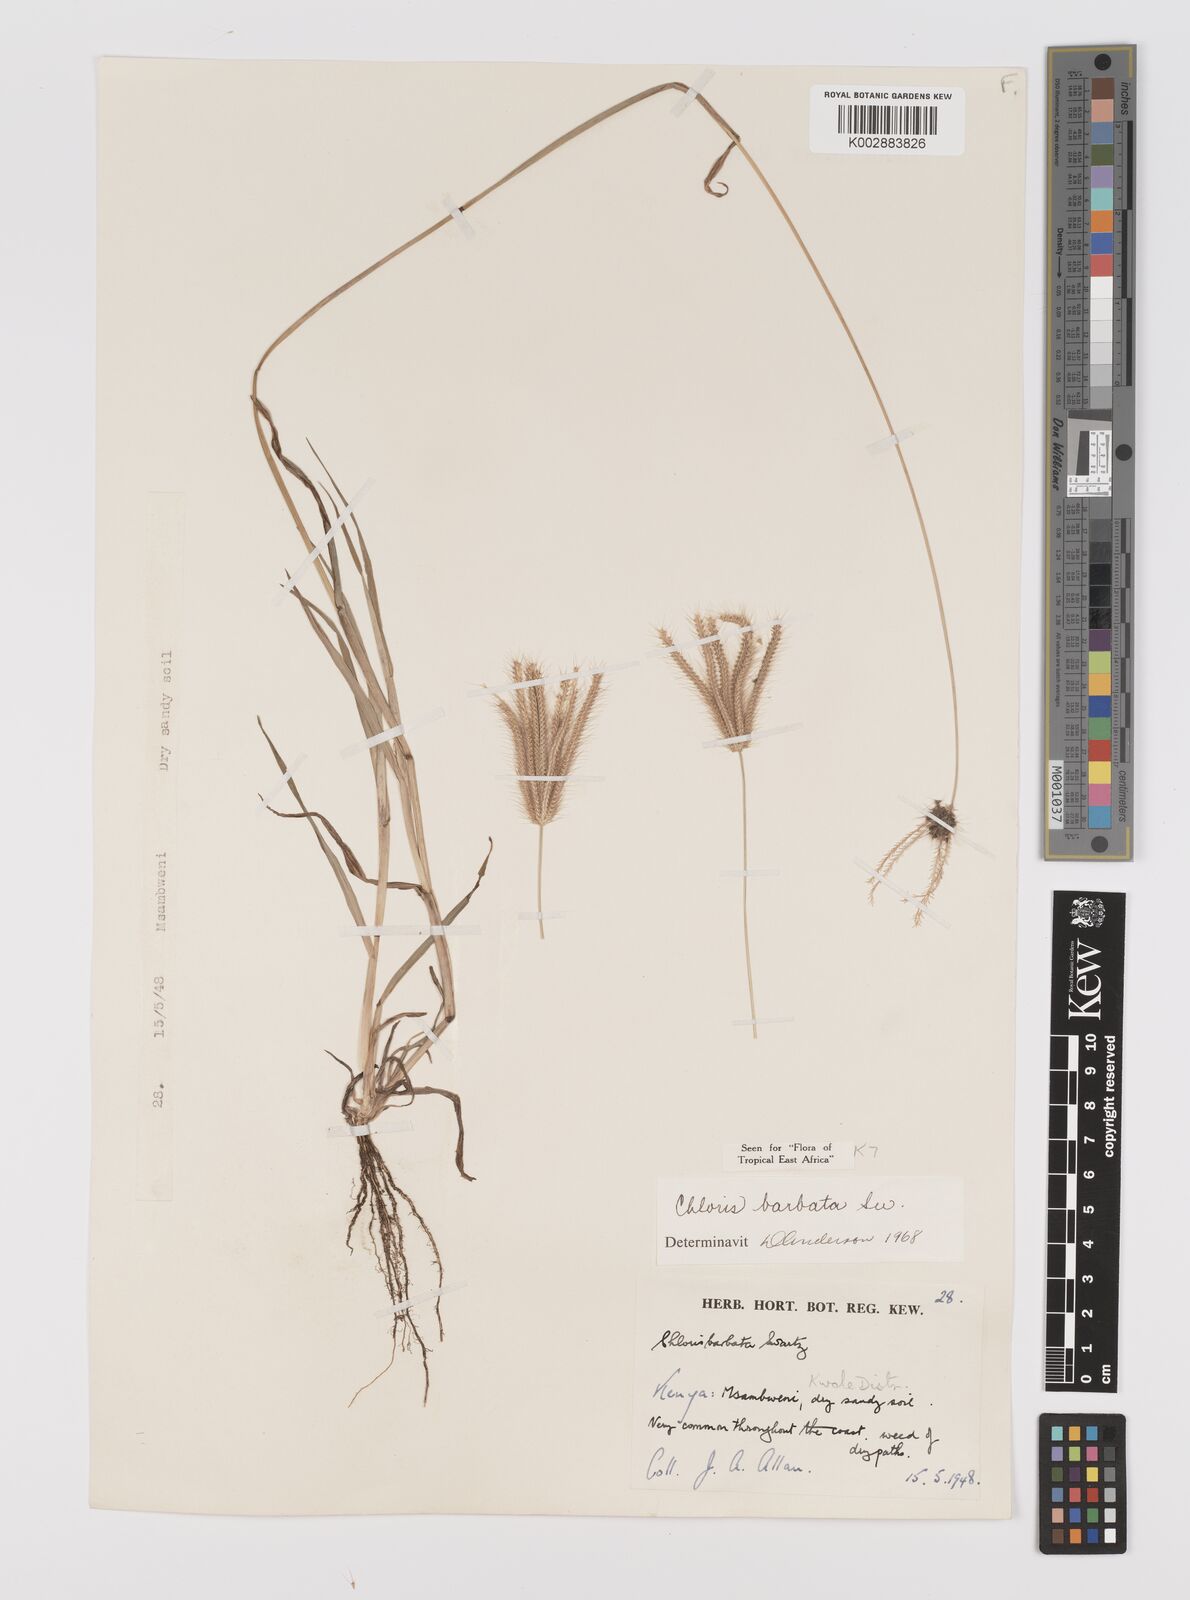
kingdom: Plantae
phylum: Tracheophyta
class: Liliopsida
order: Poales
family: Poaceae
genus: Chloris
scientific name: Chloris barbata
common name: Swollen fingergrass
